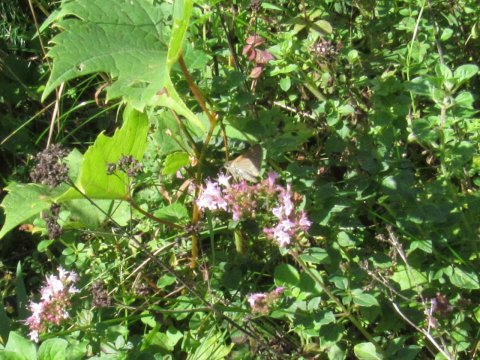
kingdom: Animalia
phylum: Arthropoda
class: Insecta
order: Lepidoptera
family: Hesperiidae
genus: Polites
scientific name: Polites themistocles
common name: Tawny-edged Skipper
